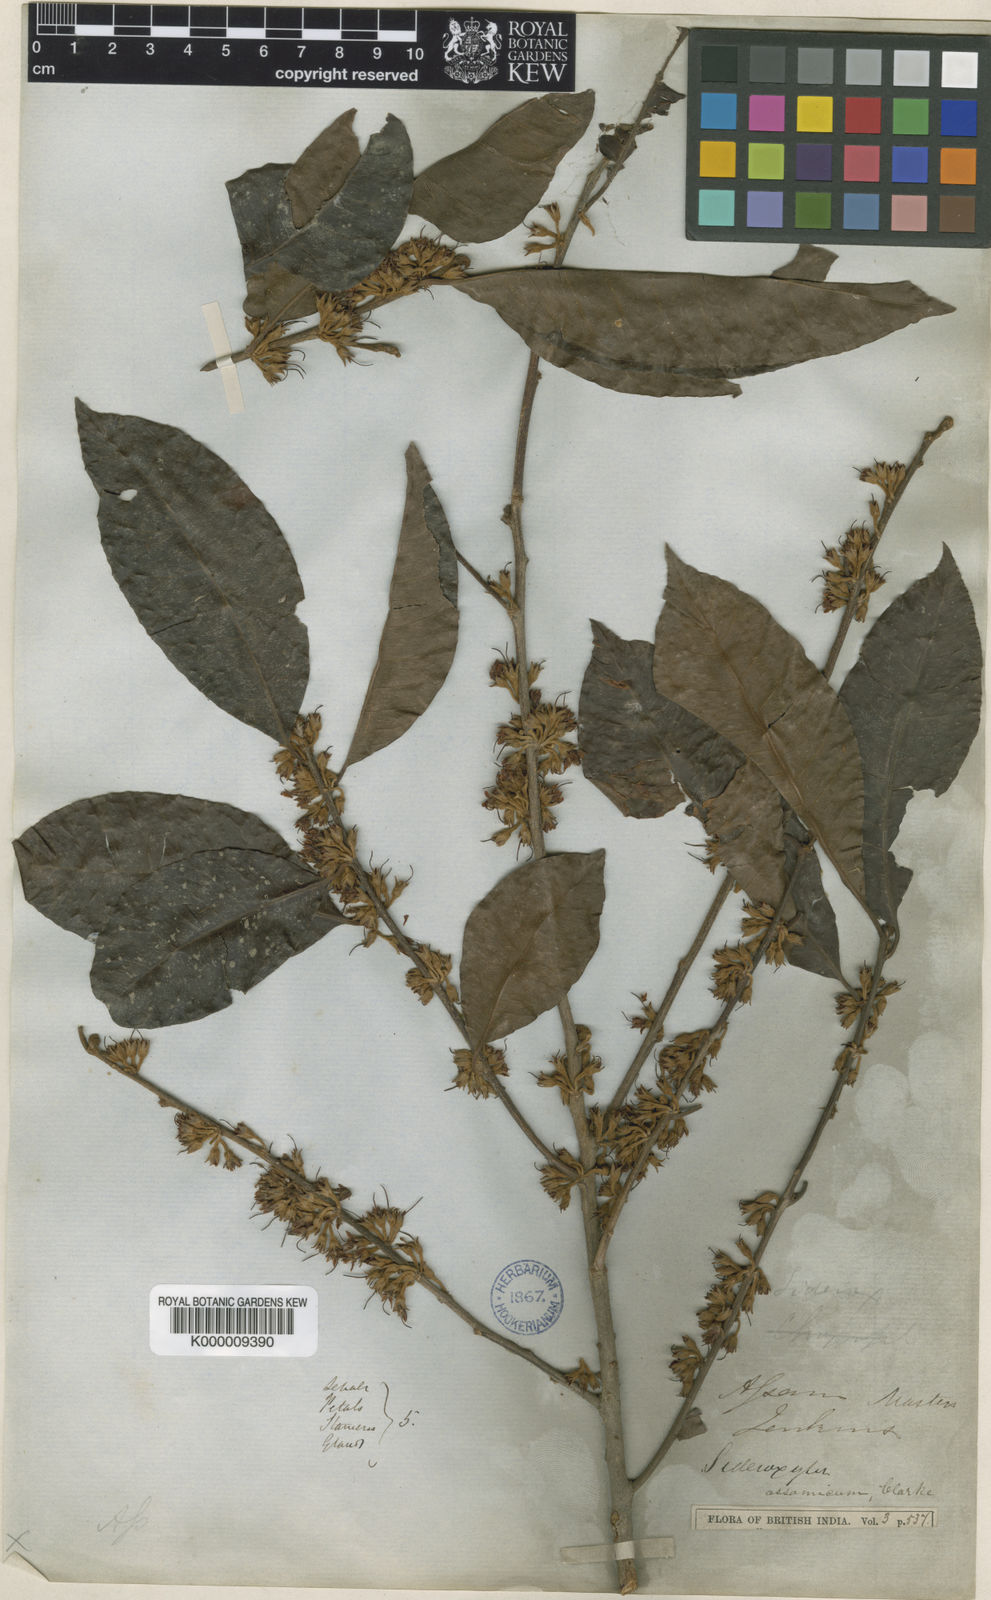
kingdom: Plantae
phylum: Tracheophyta
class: Magnoliopsida
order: Ericales
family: Sapotaceae
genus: Xantolis
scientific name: Xantolis assamica
